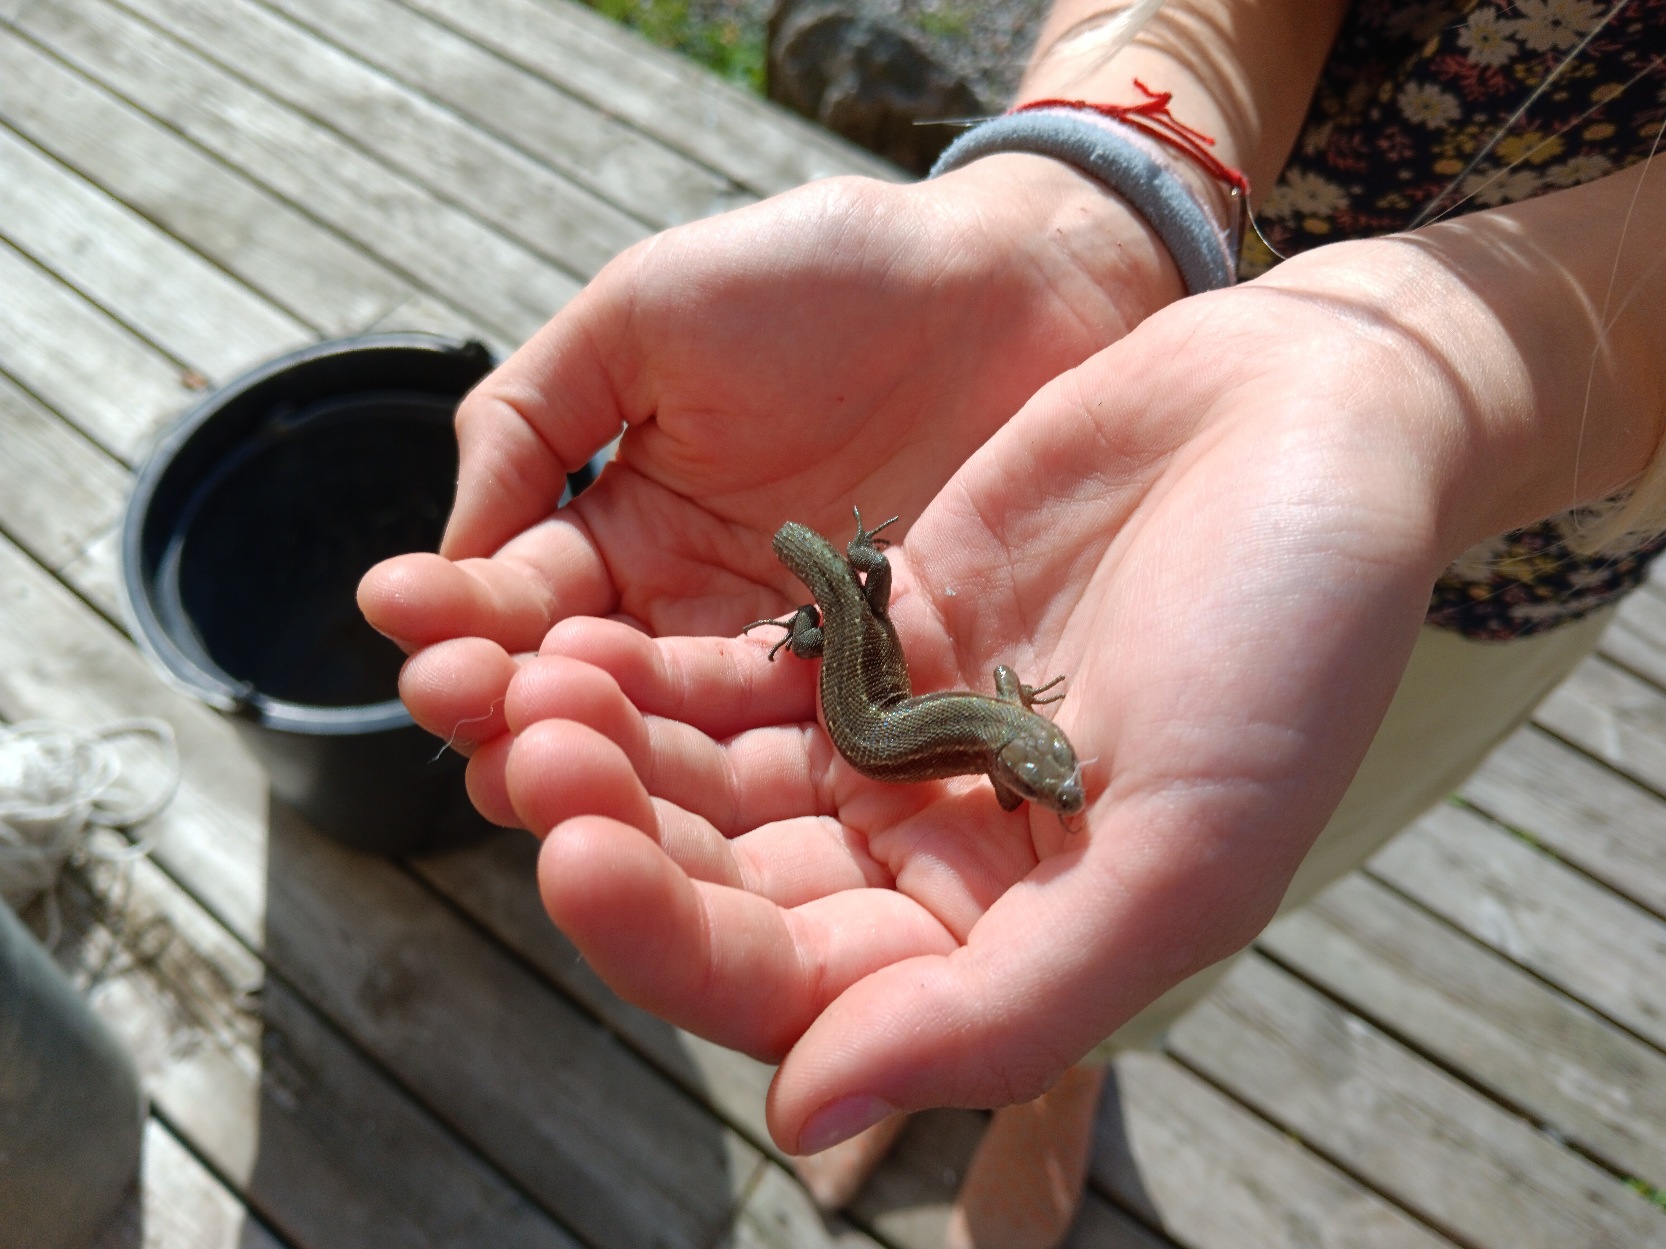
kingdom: Animalia
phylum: Chordata
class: Squamata
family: Lacertidae
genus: Zootoca
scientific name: Zootoca vivipara
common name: Skovfirben
